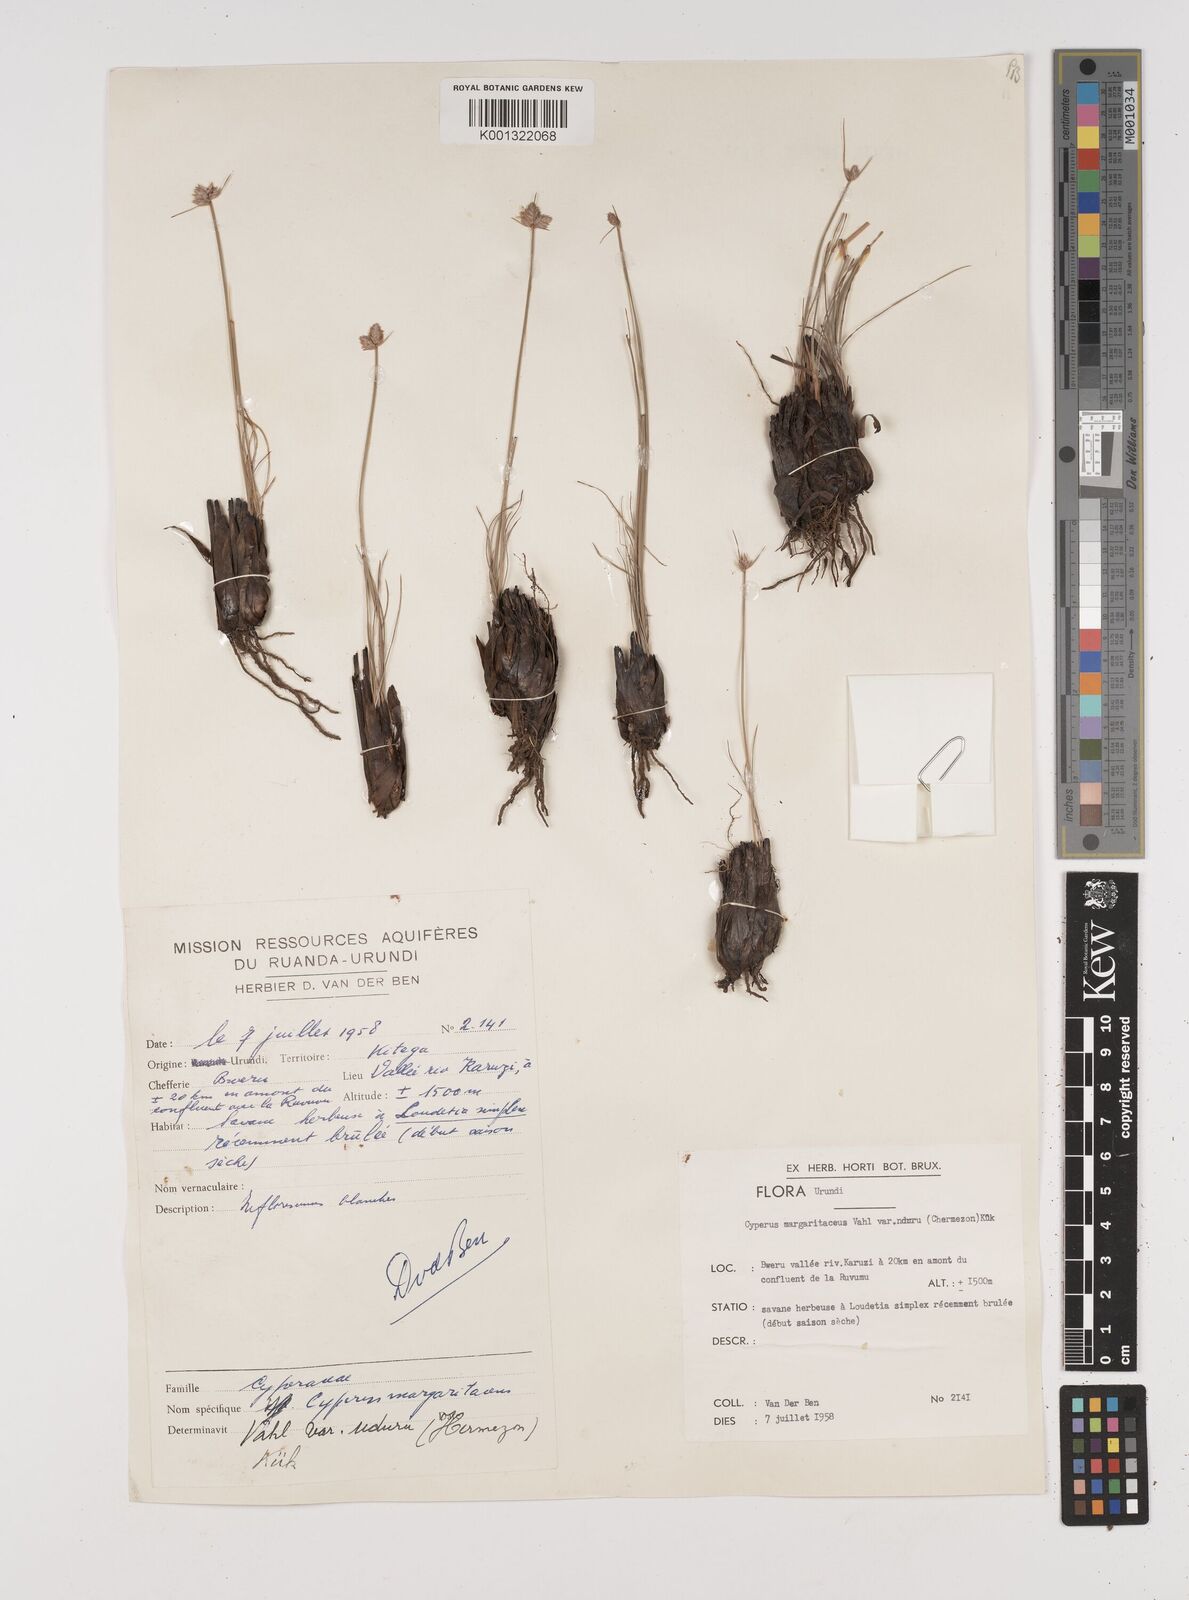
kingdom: Plantae
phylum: Tracheophyta
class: Liliopsida
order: Poales
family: Cyperaceae
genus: Cyperus
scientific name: Cyperus nduru
